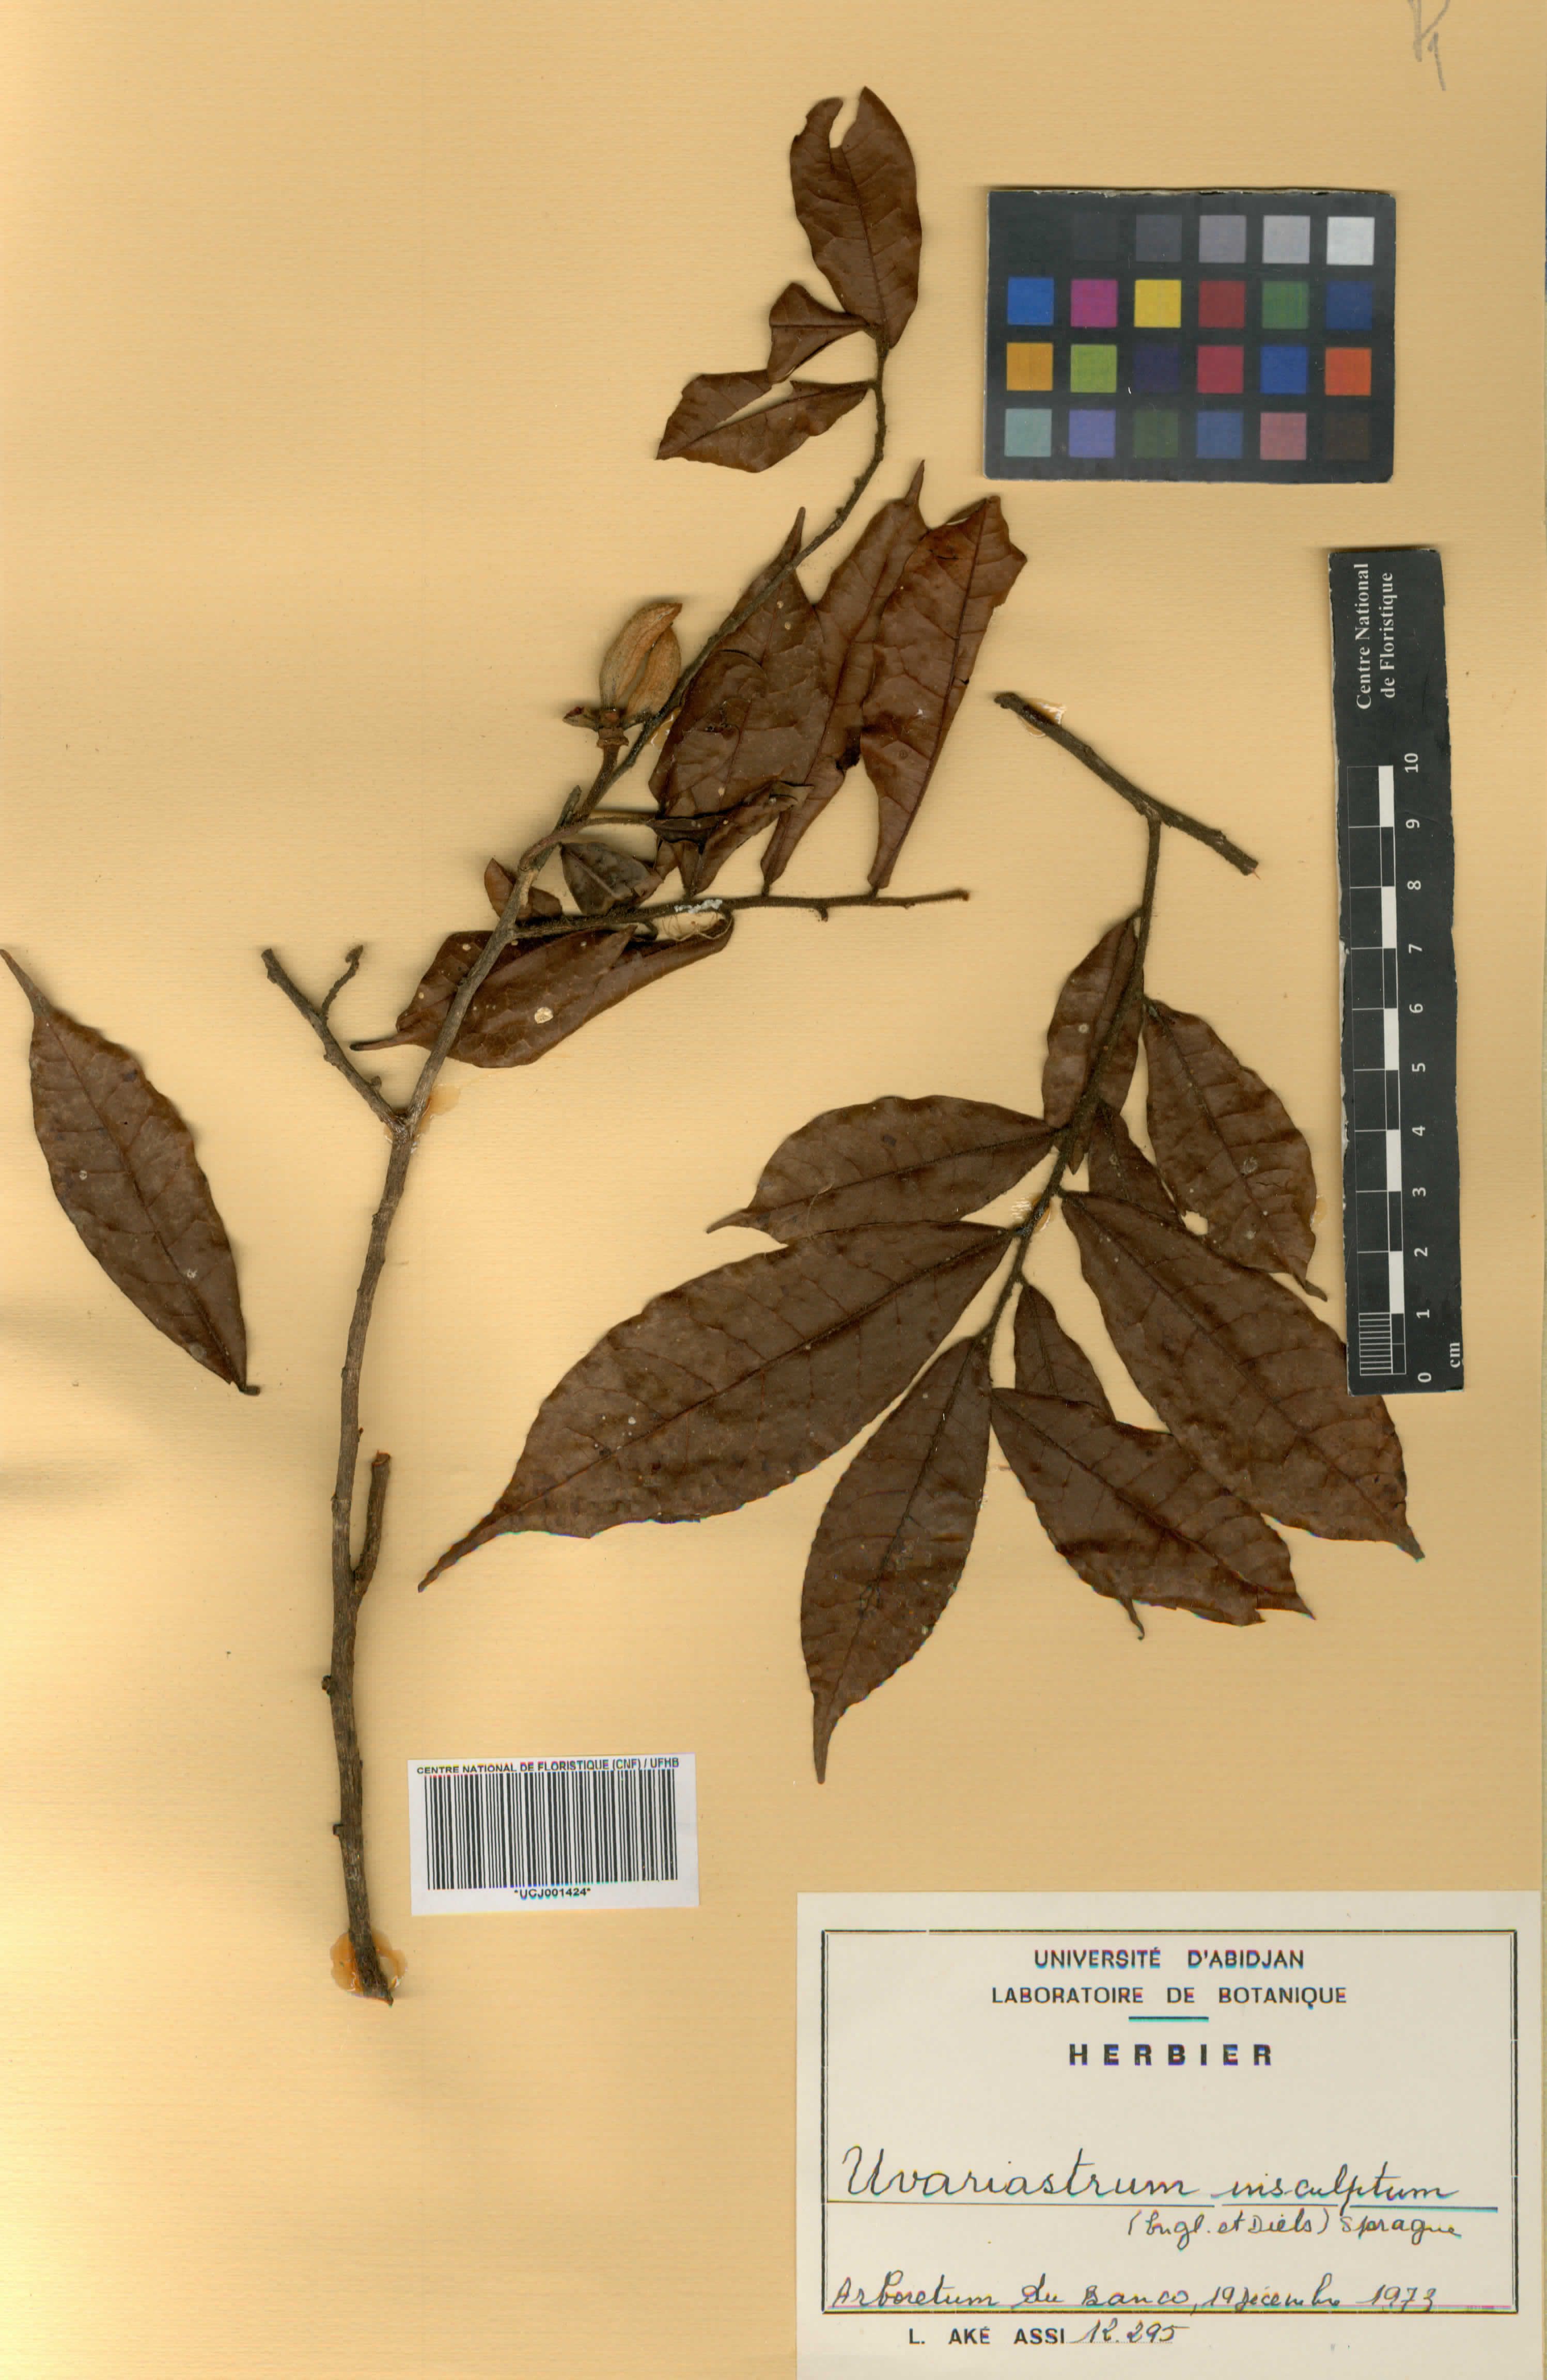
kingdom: Plantae
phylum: Tracheophyta
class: Magnoliopsida
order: Magnoliales
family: Annonaceae
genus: Uvariastrum
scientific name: Uvariastrum pierreanum
